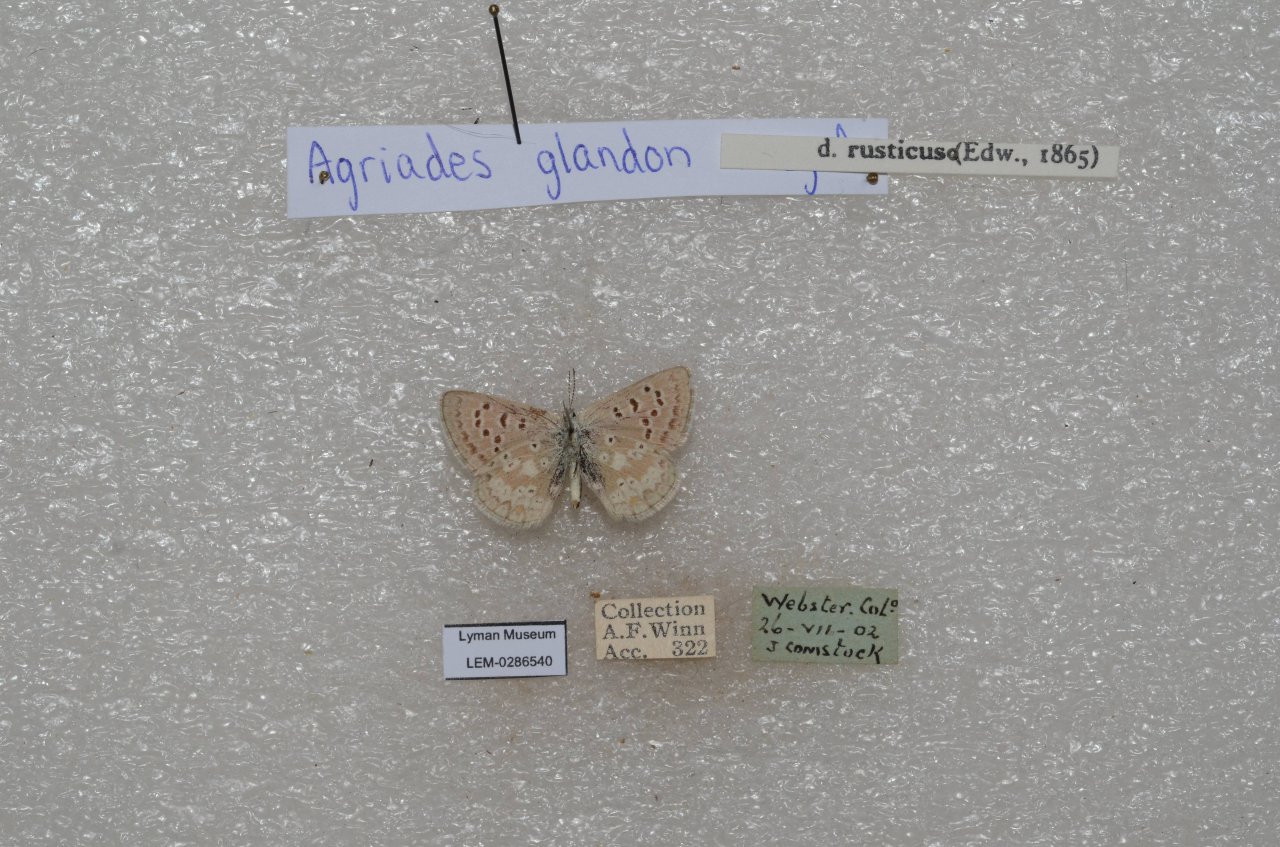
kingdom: Animalia
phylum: Arthropoda
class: Insecta
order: Lepidoptera
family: Lycaenidae
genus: Agriades
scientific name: Agriades glandon
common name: Arctic Blue
